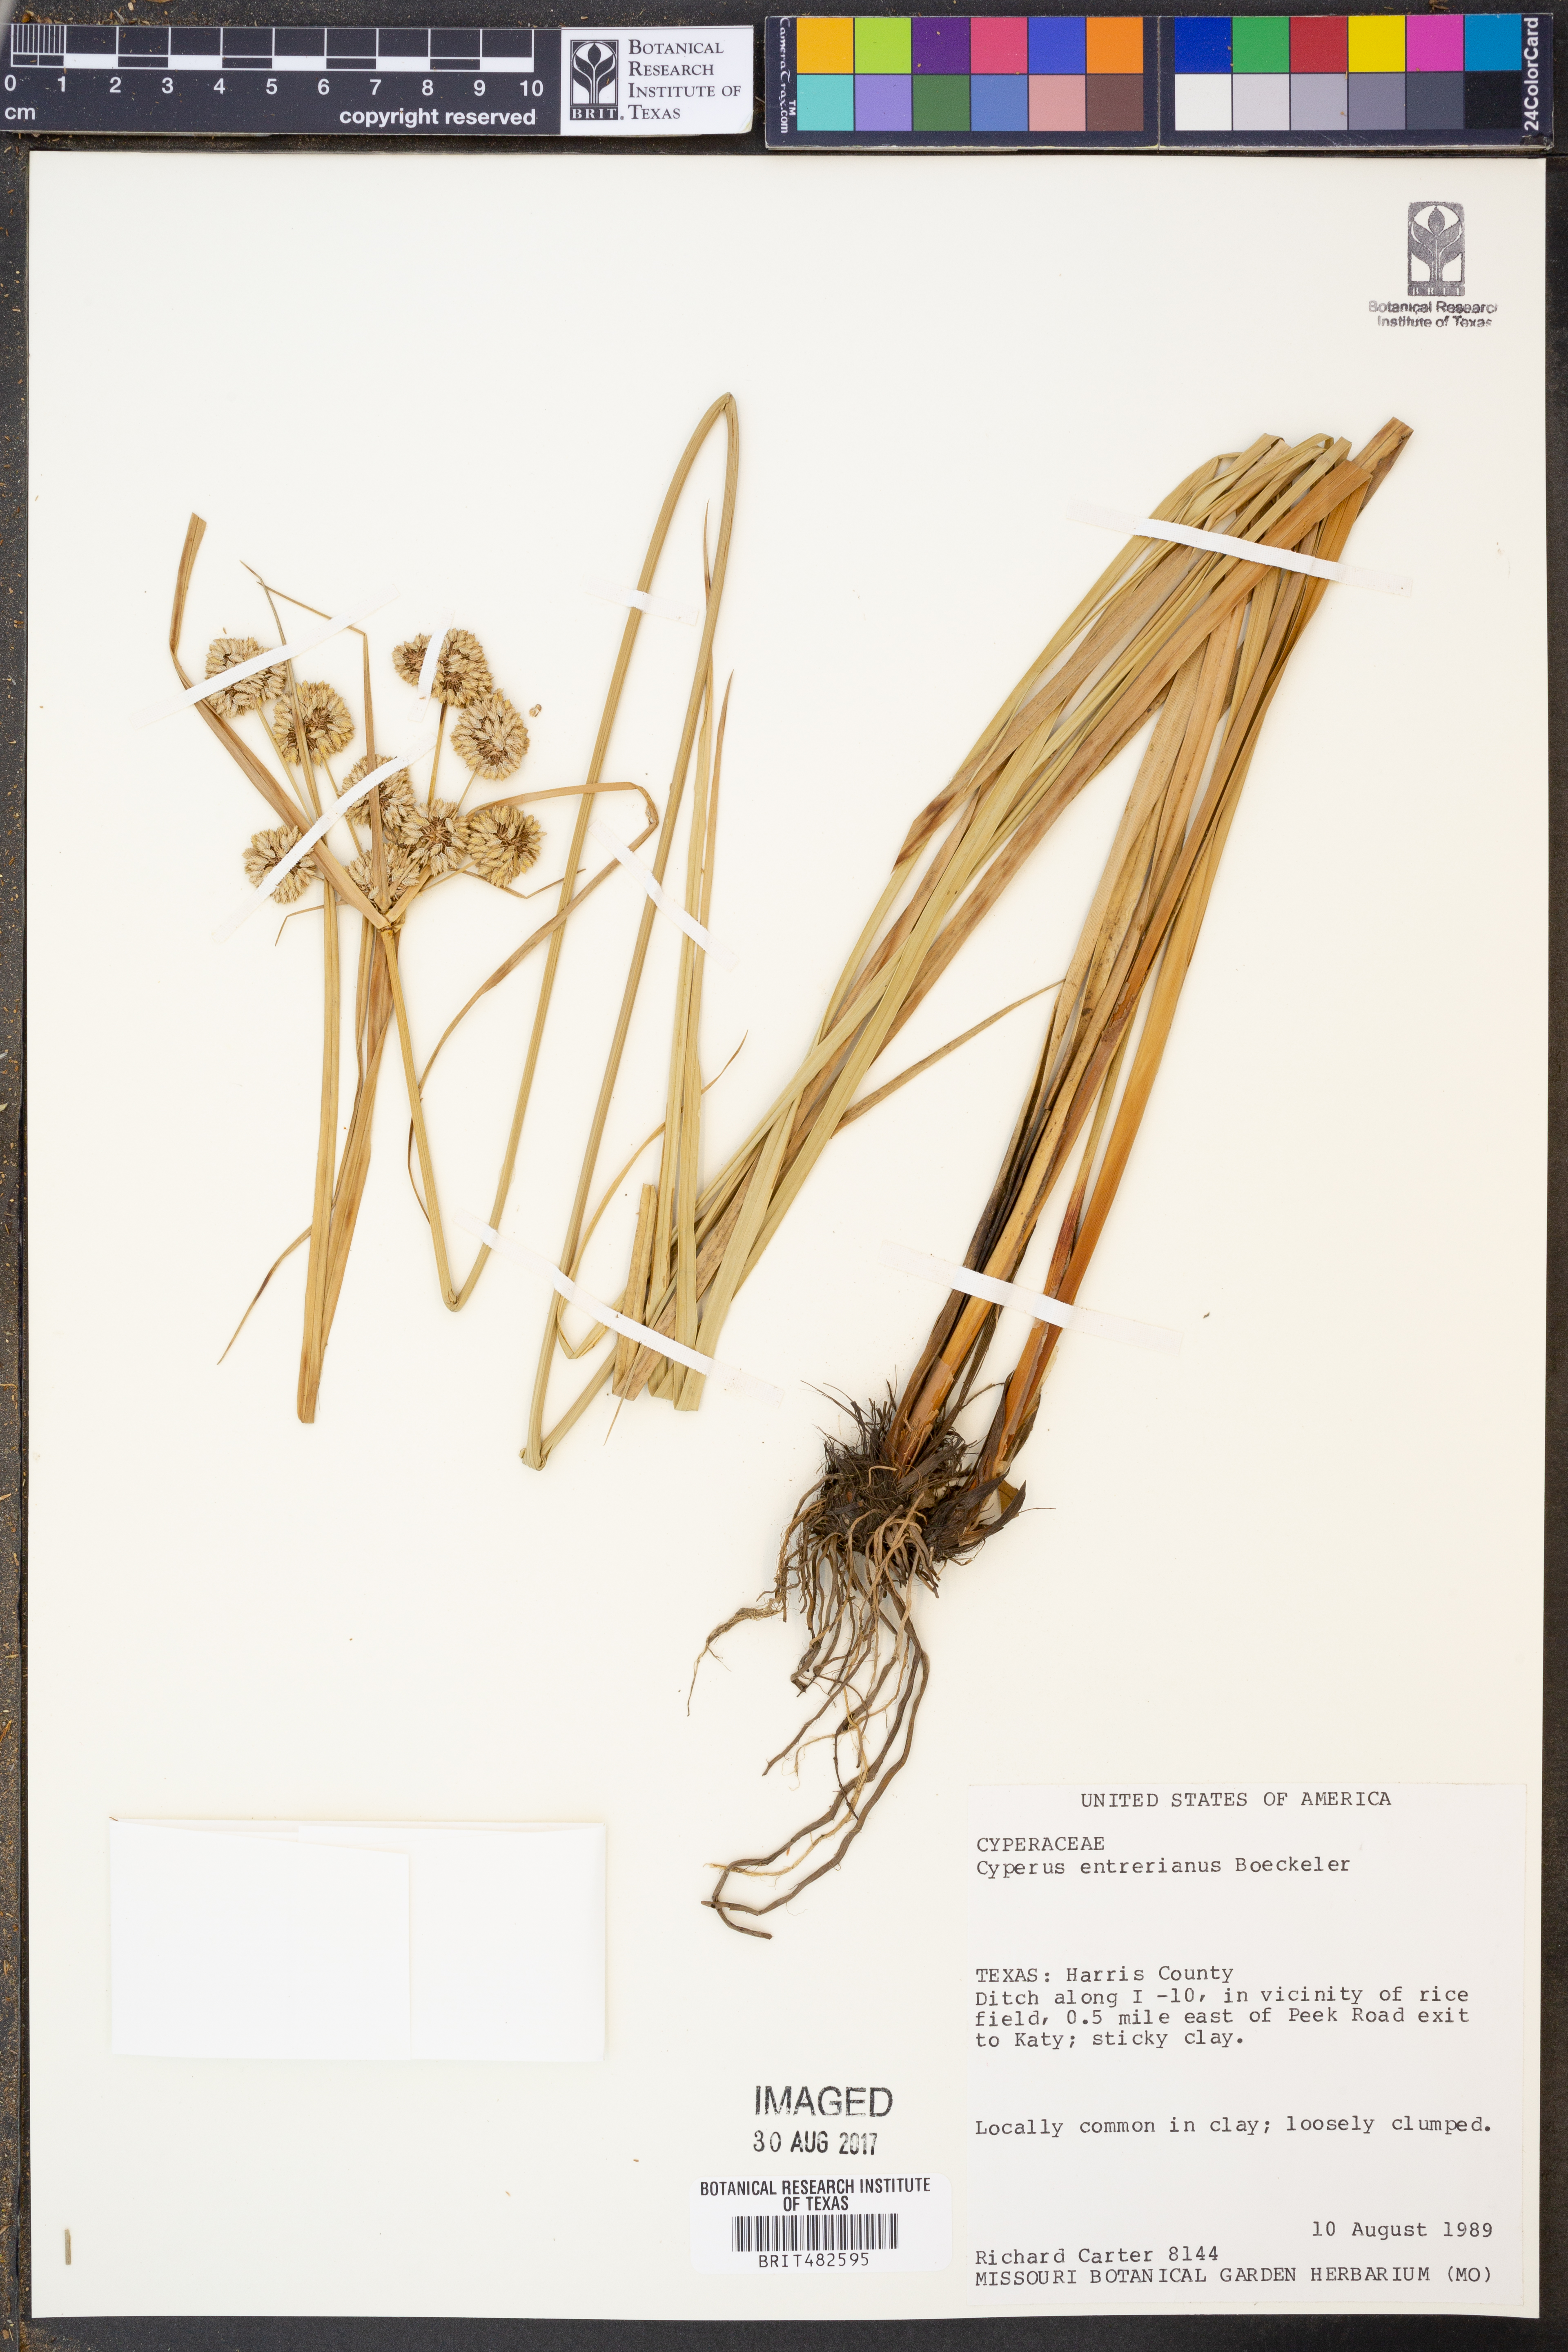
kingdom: Plantae
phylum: Tracheophyta
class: Liliopsida
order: Poales
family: Cyperaceae
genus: Cyperus
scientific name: Cyperus entrerianus
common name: Woodrush flatsedge
